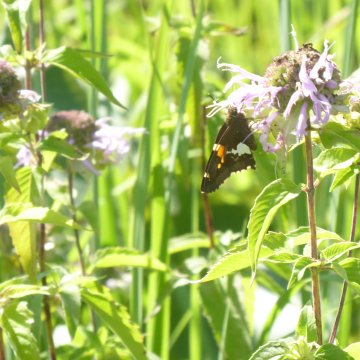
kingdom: Animalia
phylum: Arthropoda
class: Insecta
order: Lepidoptera
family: Hesperiidae
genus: Epargyreus
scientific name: Epargyreus clarus
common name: Silver-spotted Skipper
